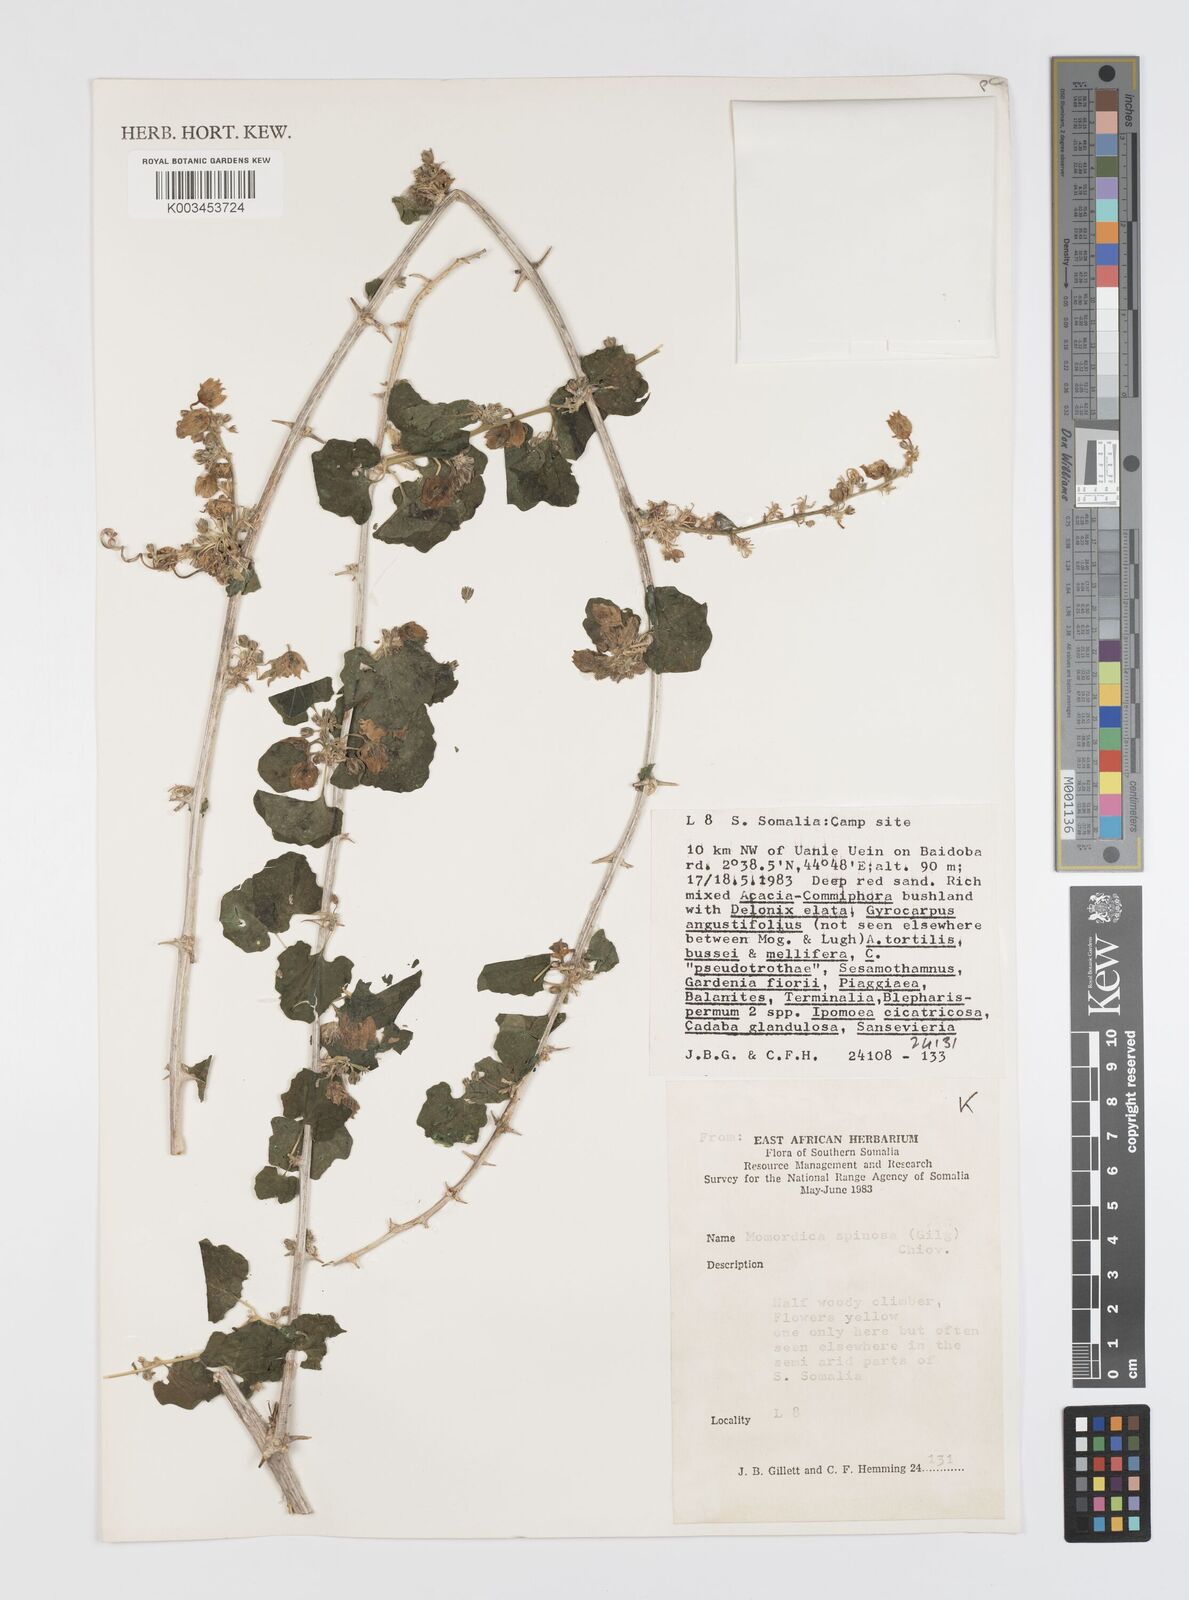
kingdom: Plantae
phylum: Tracheophyta
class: Magnoliopsida
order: Cucurbitales
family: Cucurbitaceae
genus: Momordica
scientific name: Momordica spinosa
